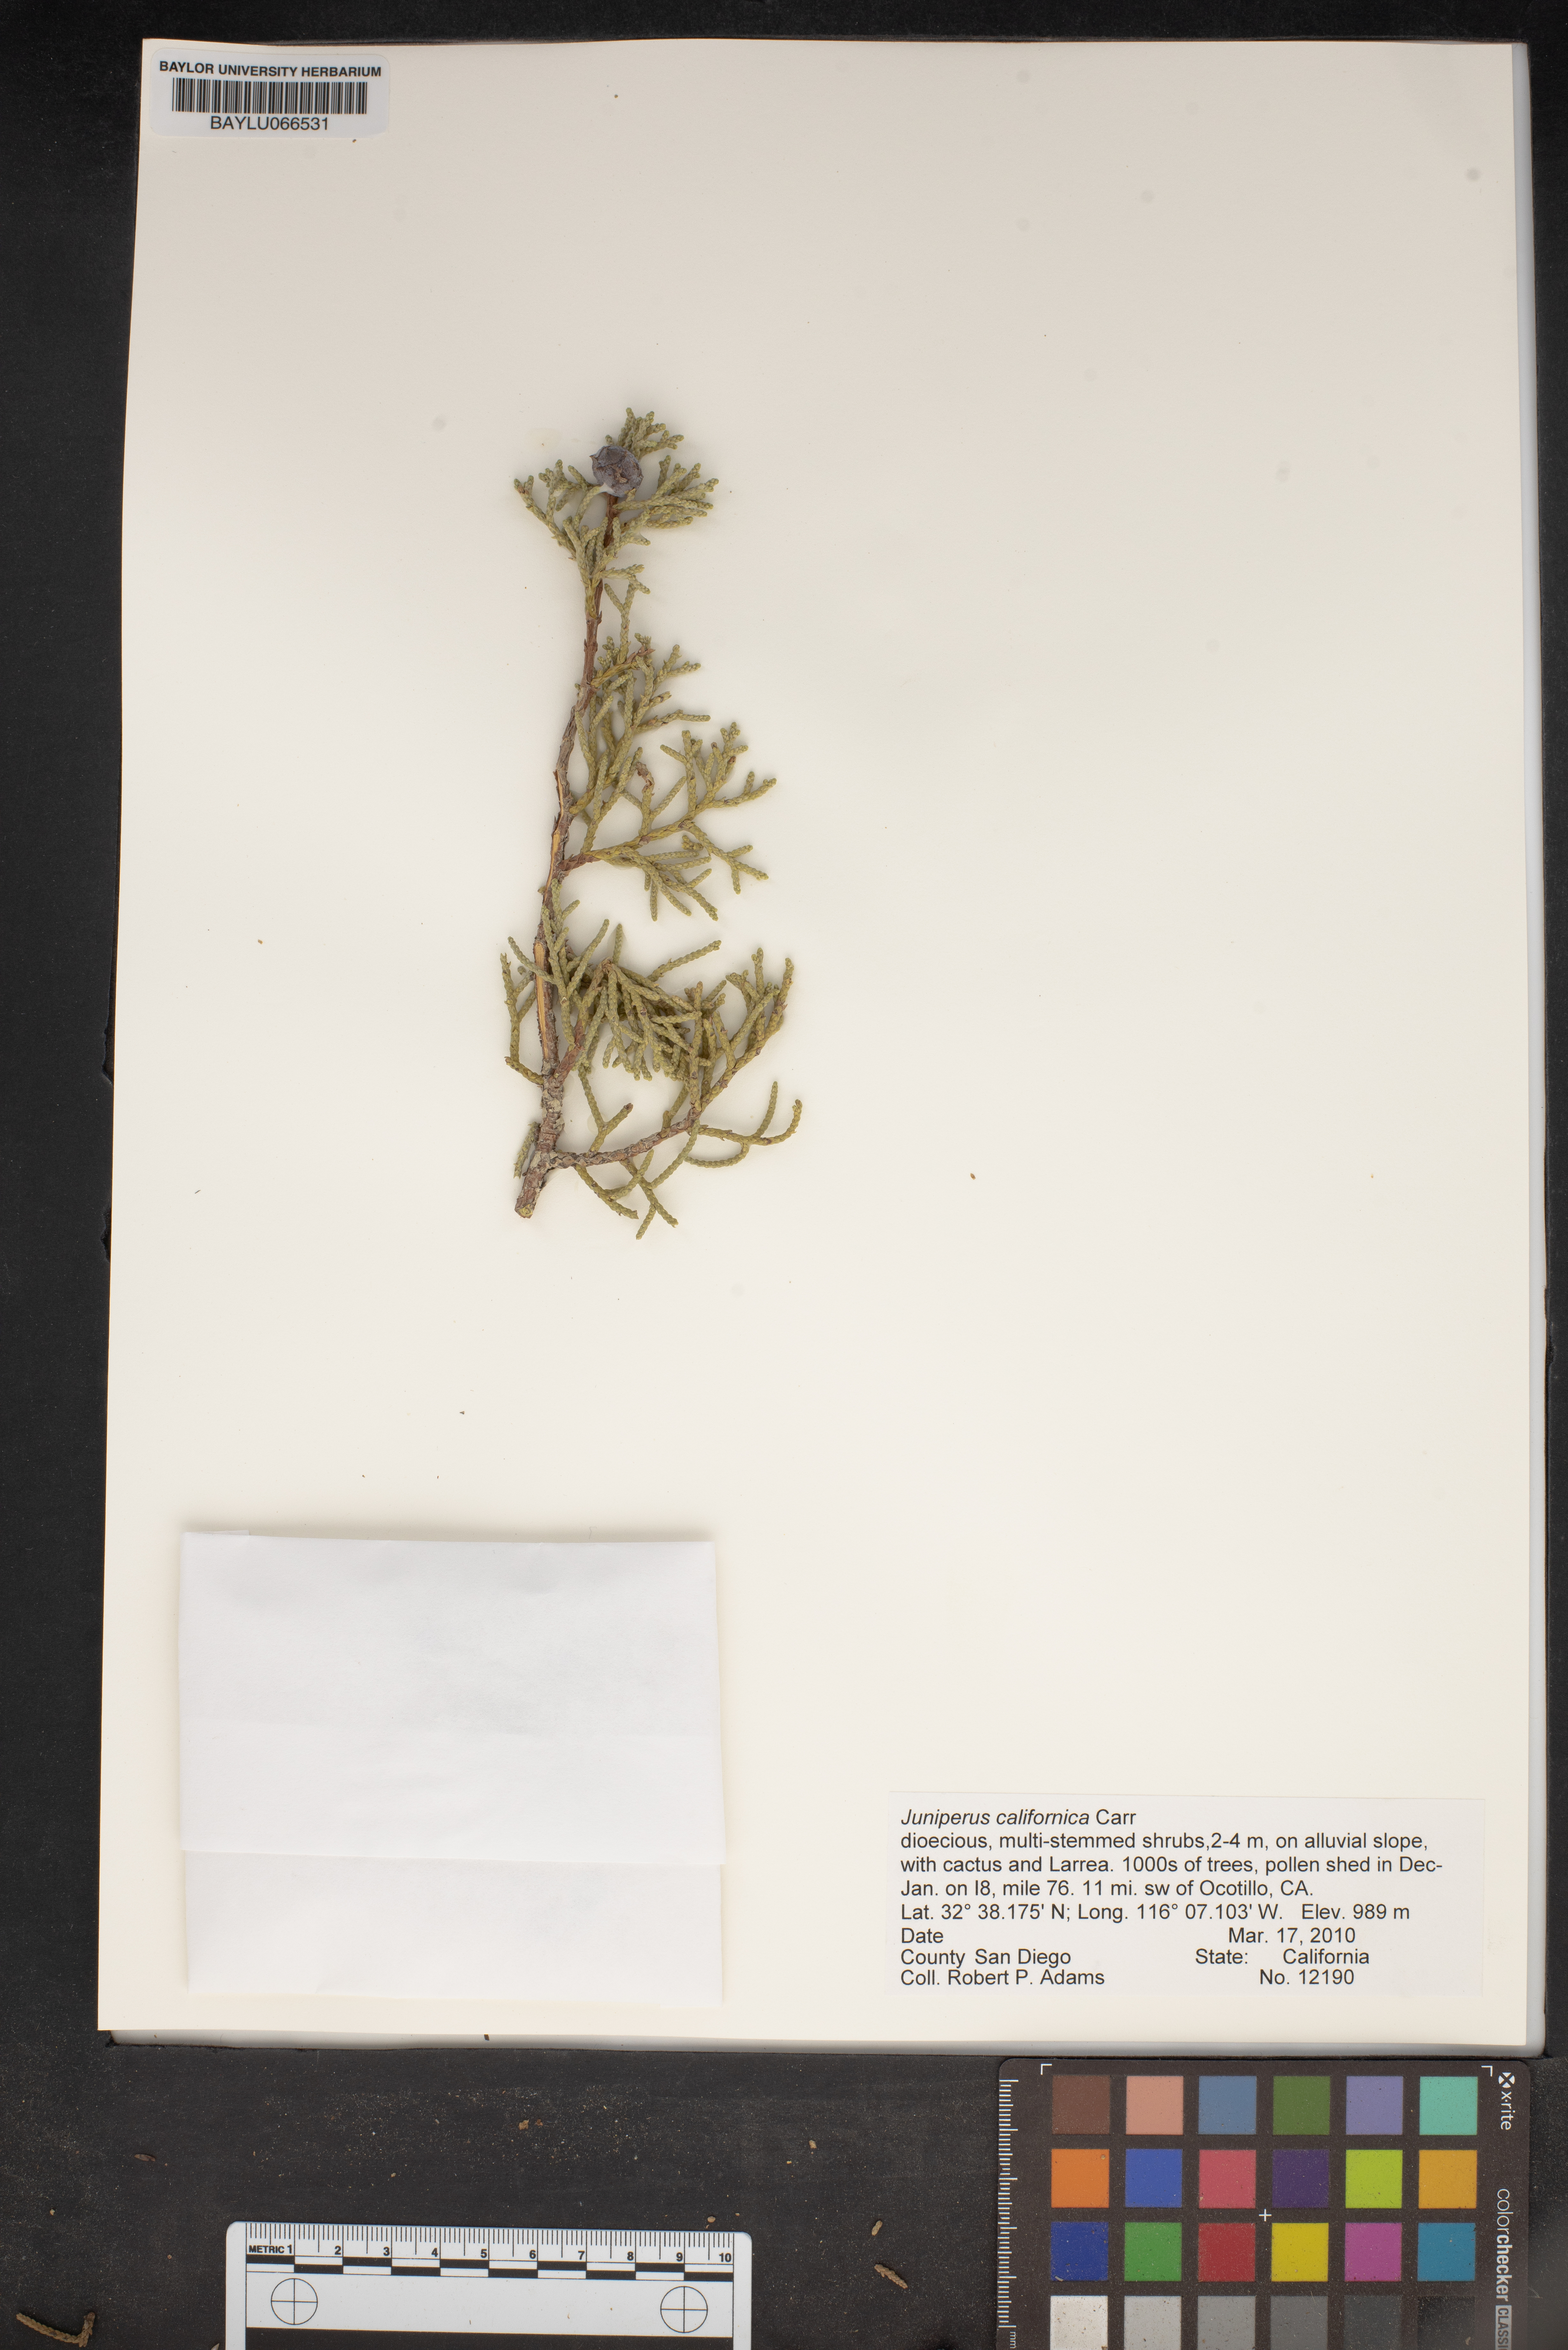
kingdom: Plantae
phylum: Tracheophyta
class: Pinopsida
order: Pinales
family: Cupressaceae
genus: Juniperus
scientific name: Juniperus californica
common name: California juniper
